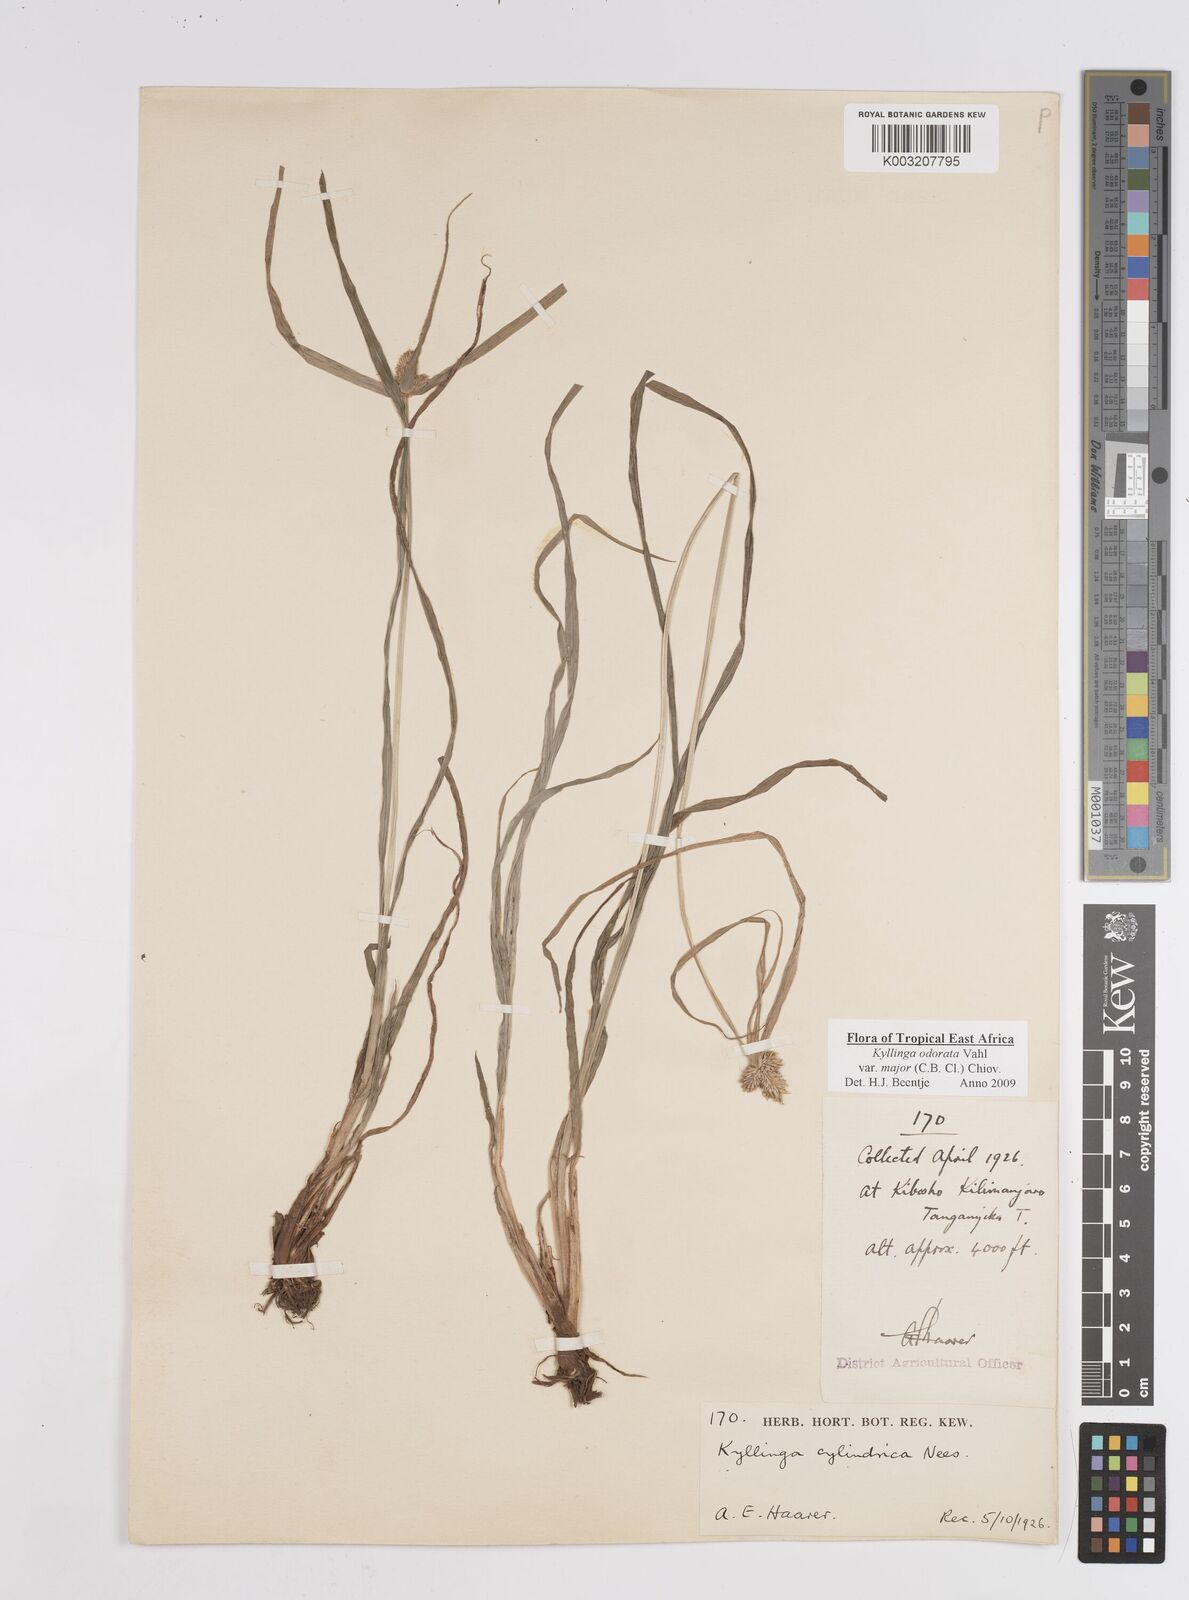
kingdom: Plantae
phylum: Tracheophyta
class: Liliopsida
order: Poales
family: Cyperaceae
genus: Cyperus
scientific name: Cyperus
